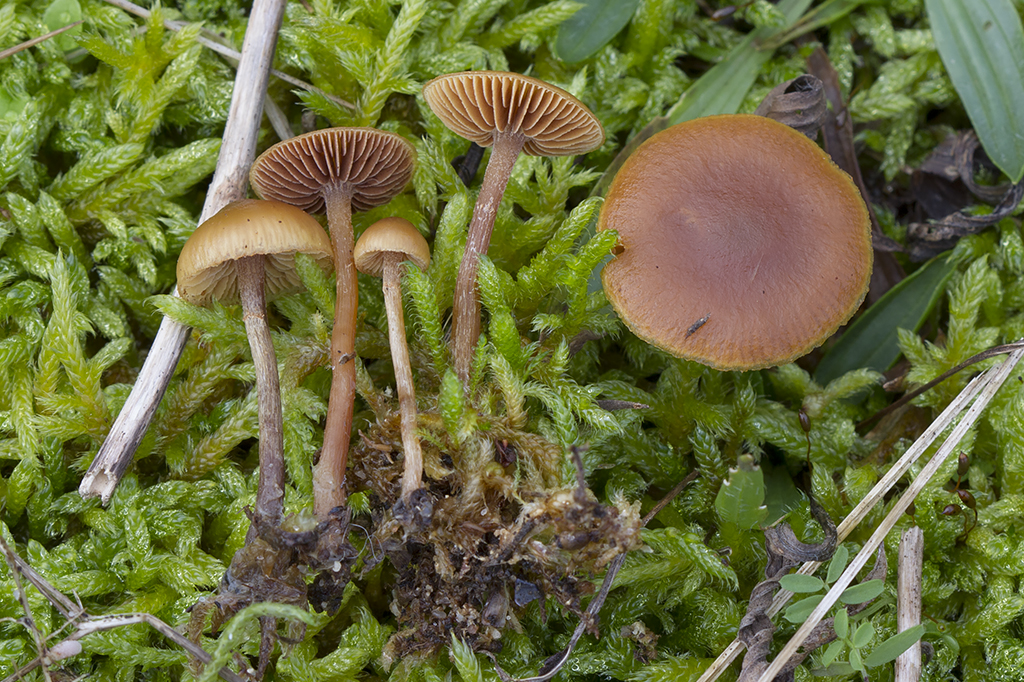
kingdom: Fungi
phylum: Basidiomycota
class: Agaricomycetes
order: Agaricales
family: Hymenogastraceae
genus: Galerina
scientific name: Galerina esteve-raventosii
